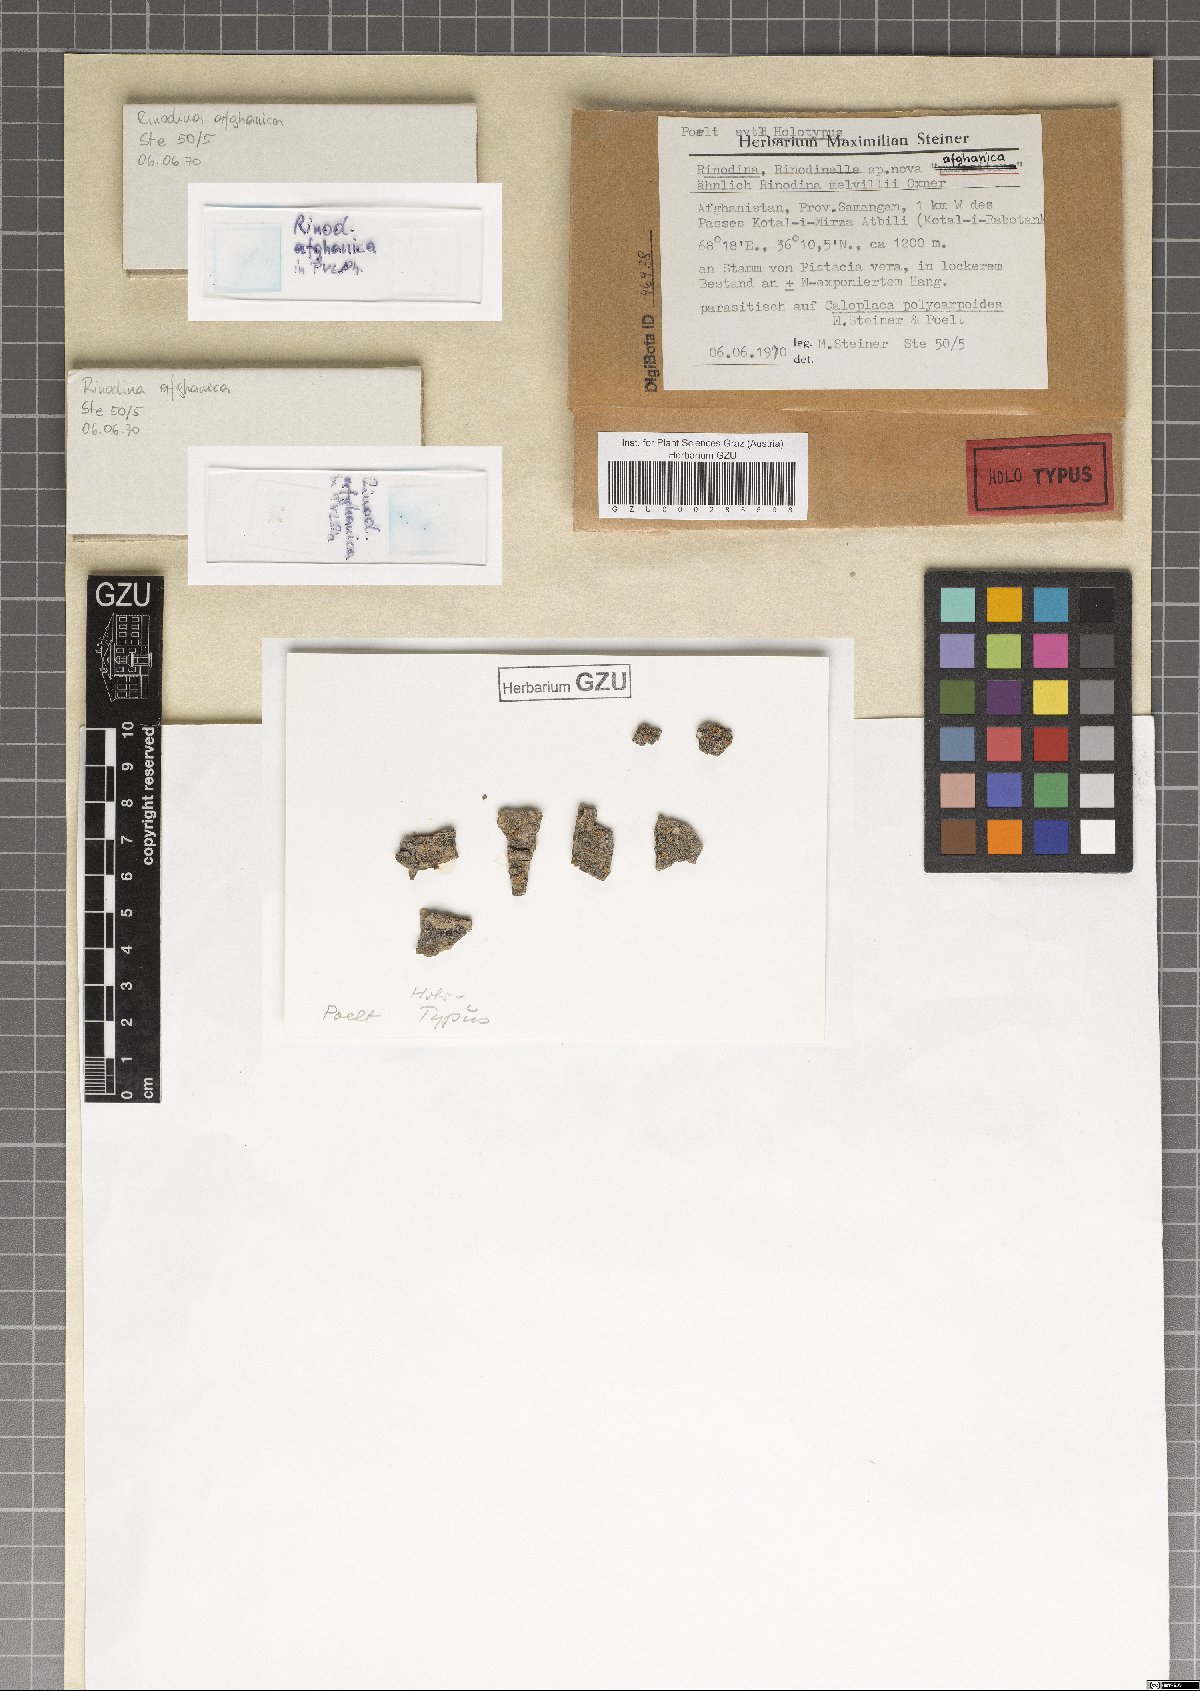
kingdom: Fungi
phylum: Ascomycota
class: Lecanoromycetes
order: Caliciales
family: Physciaceae
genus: Oxnerella
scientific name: Oxnerella afghanica
